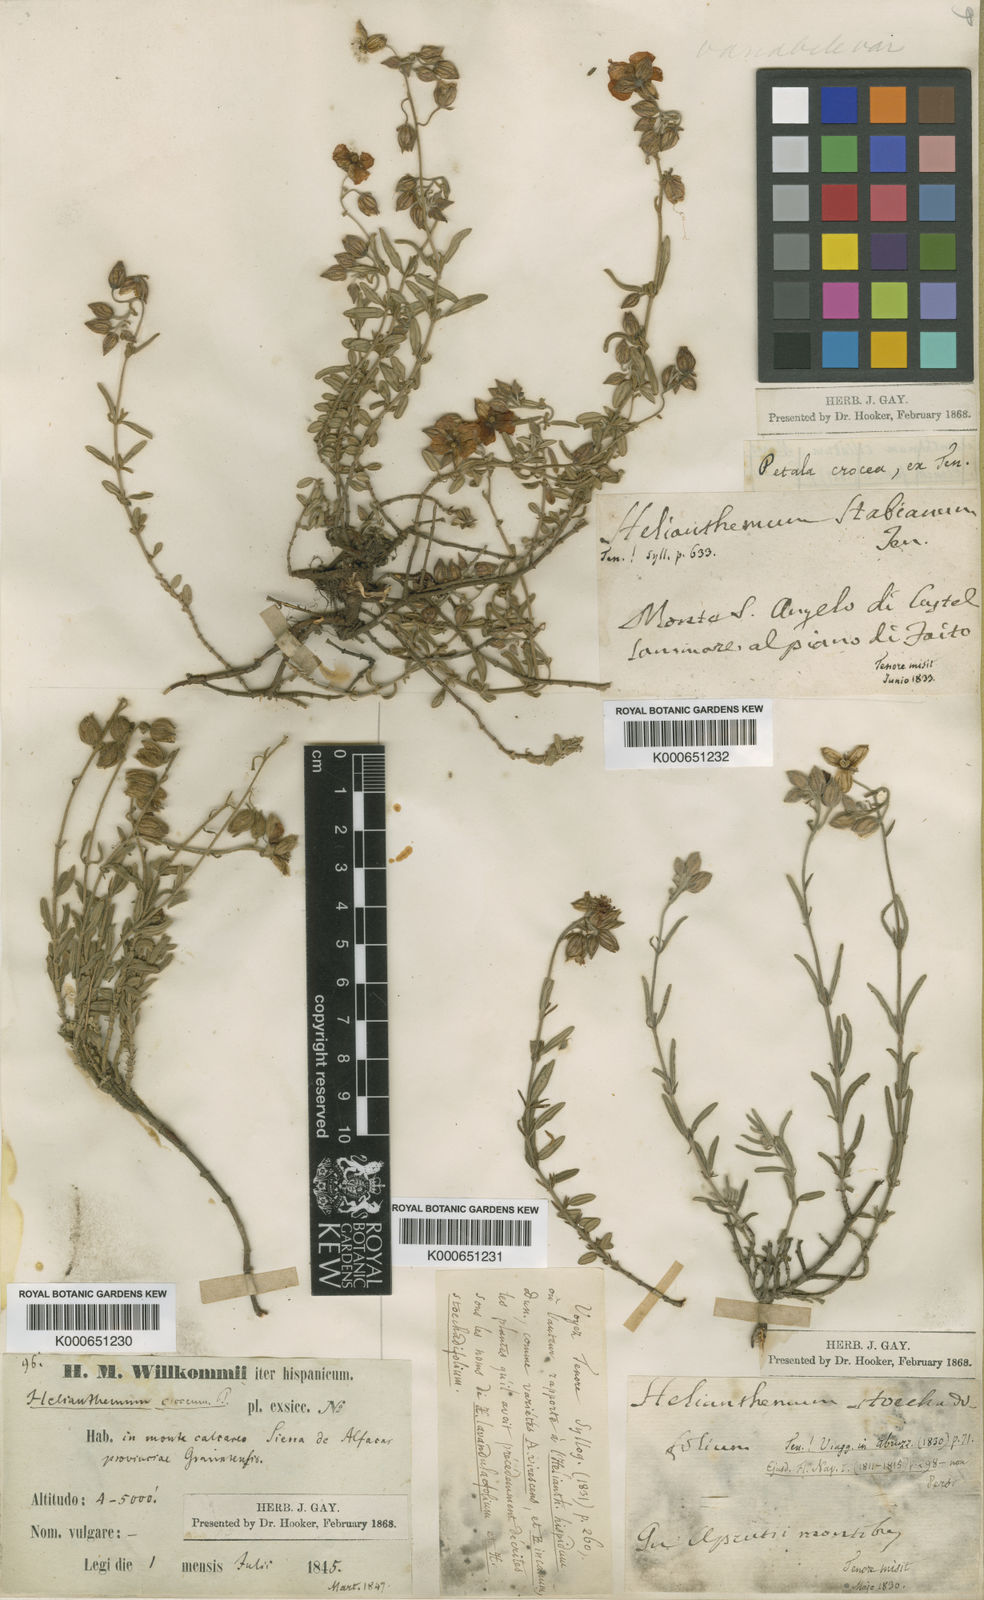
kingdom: Plantae
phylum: Tracheophyta
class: Magnoliopsida
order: Malvales
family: Cistaceae
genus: Helianthemum
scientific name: Helianthemum croceum
